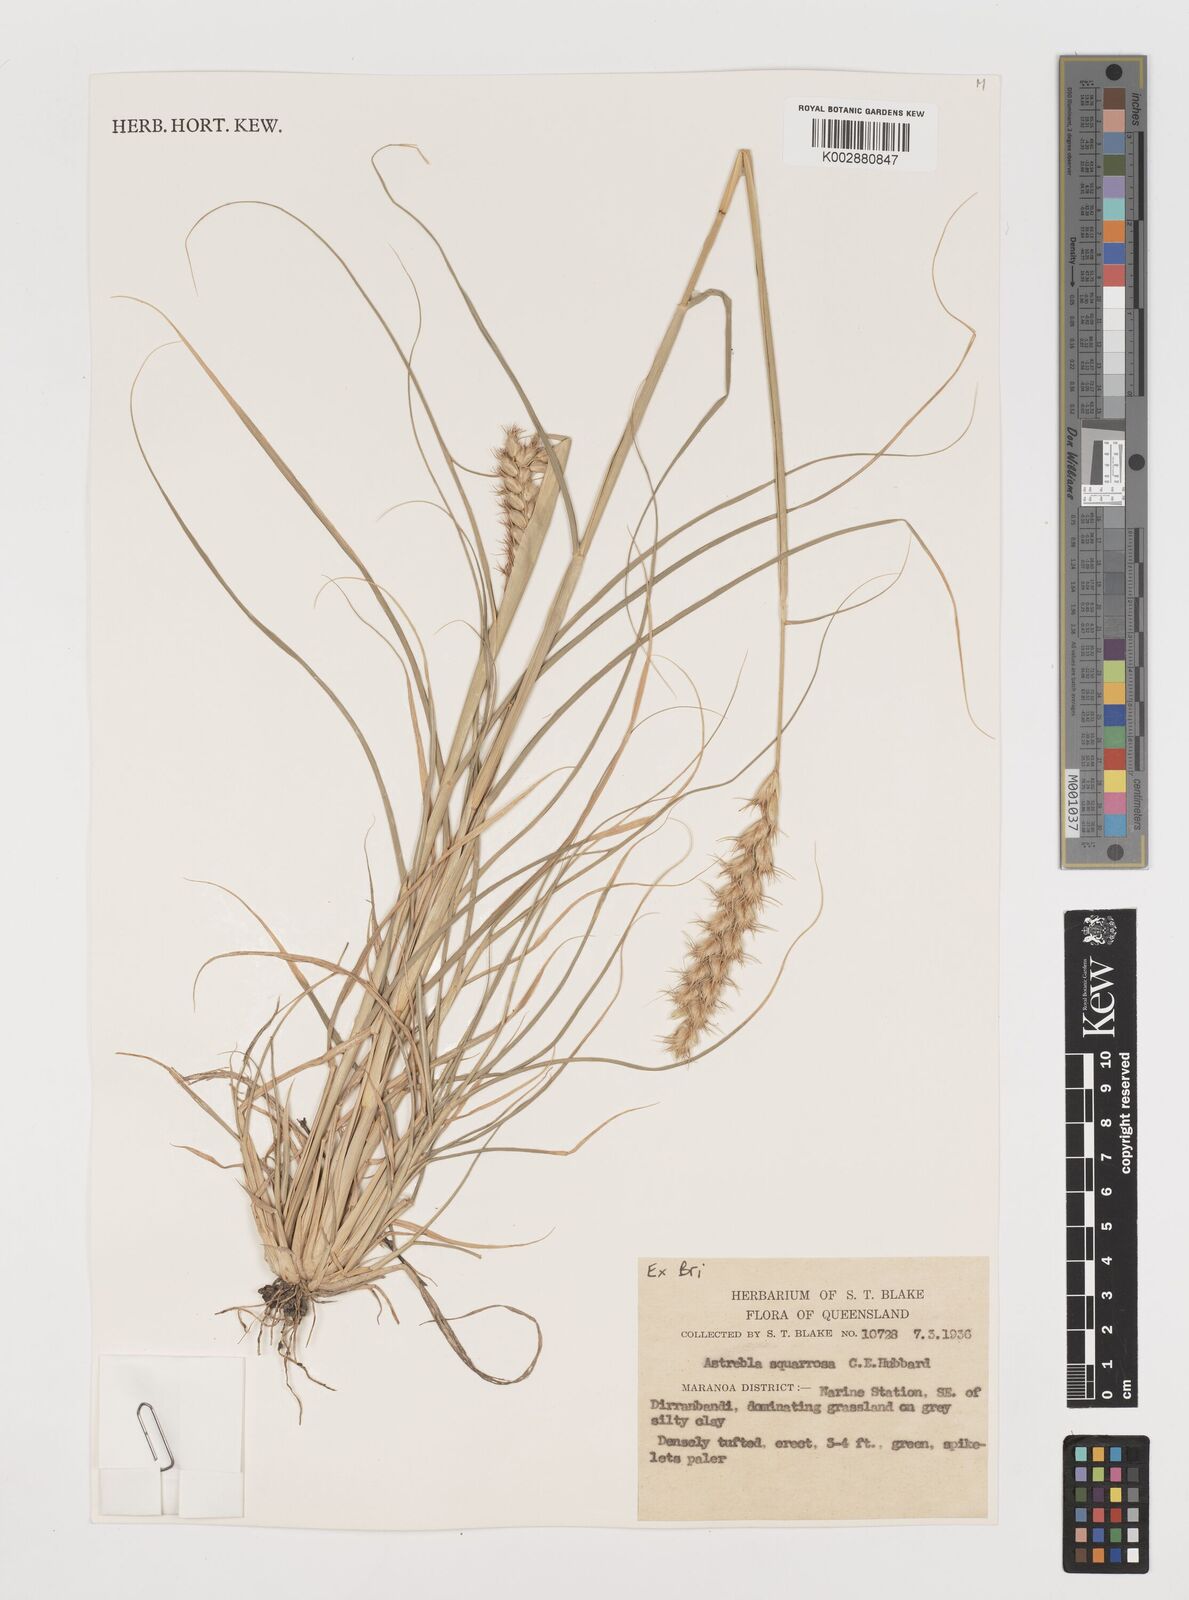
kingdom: Plantae
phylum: Tracheophyta
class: Liliopsida
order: Poales
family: Poaceae
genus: Astrebla
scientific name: Astrebla squarrosa
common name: Wheat-ear mitchell grass
